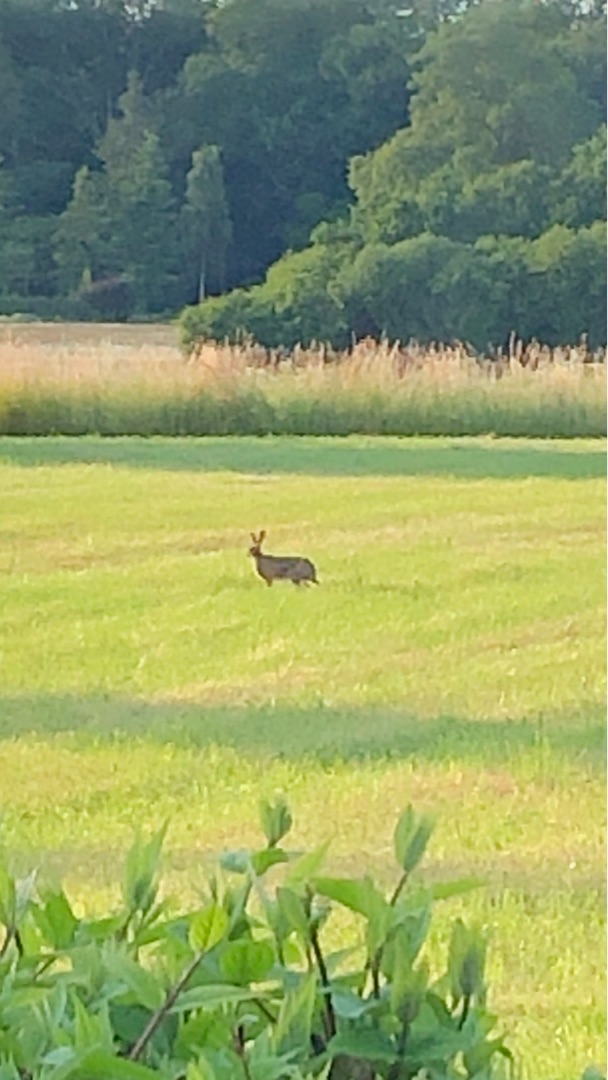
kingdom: Animalia
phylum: Chordata
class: Mammalia
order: Lagomorpha
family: Leporidae
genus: Lepus
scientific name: Lepus europaeus
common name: Hare
